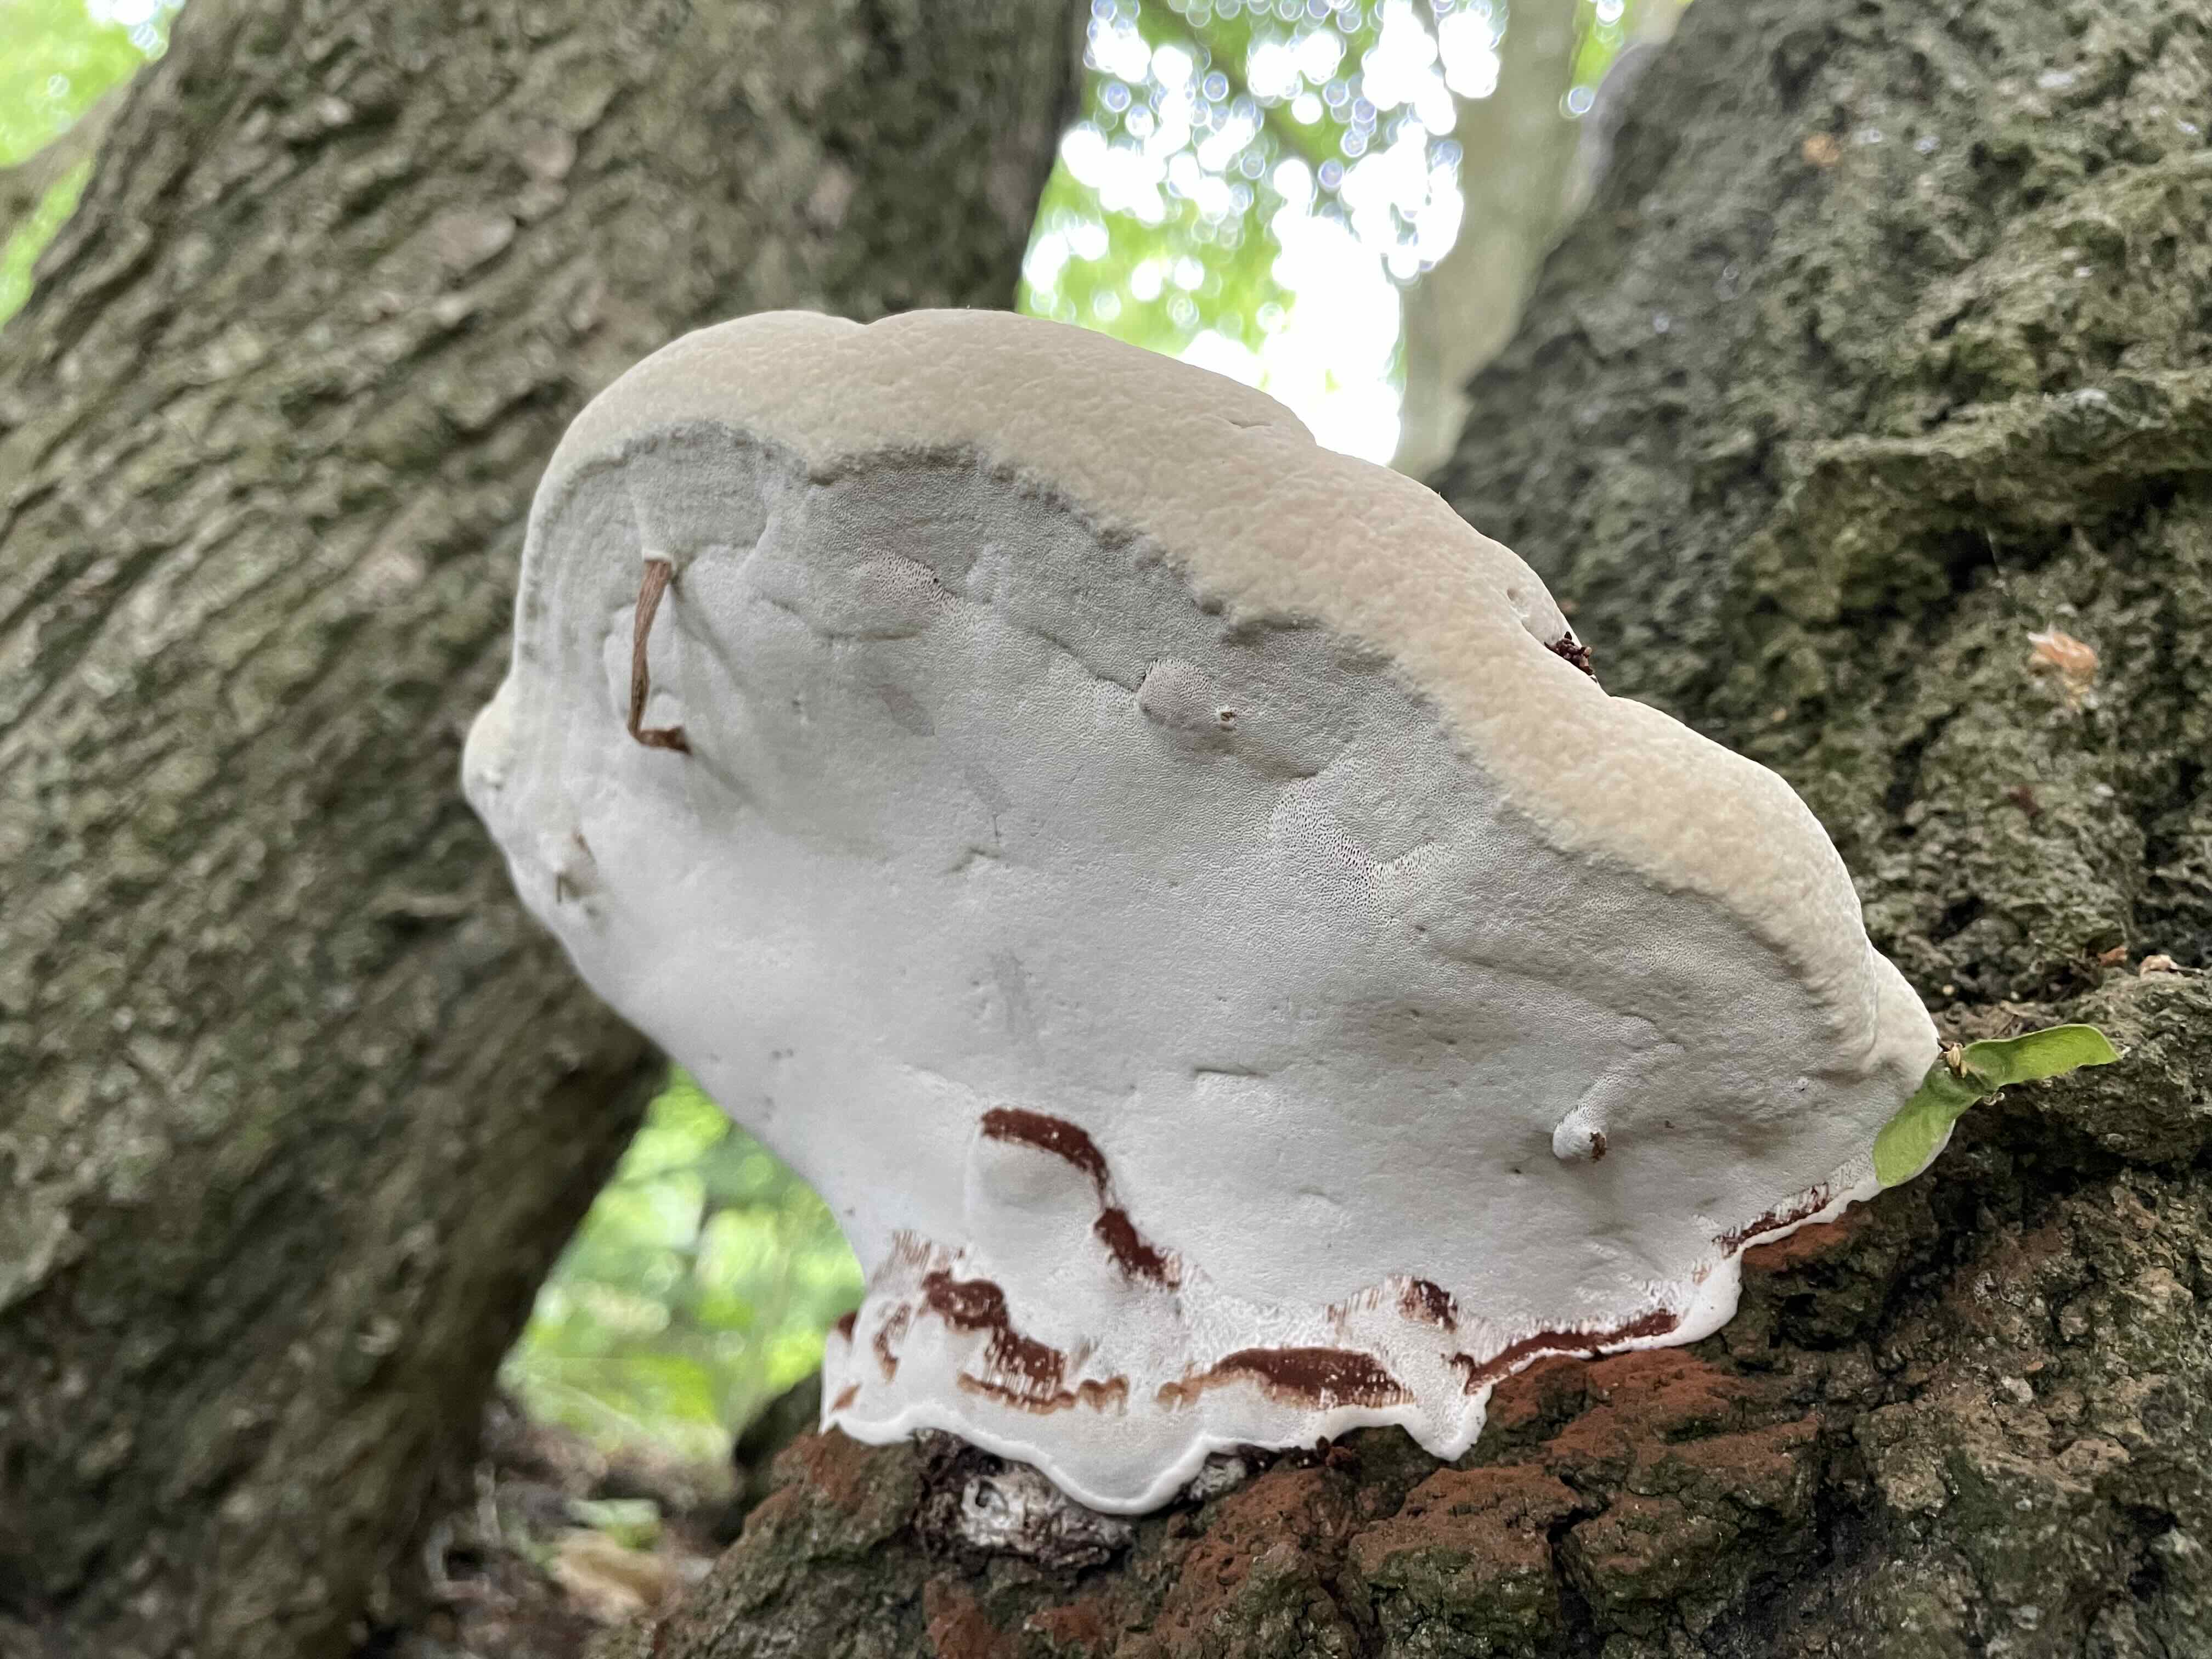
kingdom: Fungi
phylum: Basidiomycota
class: Agaricomycetes
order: Polyporales
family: Polyporaceae
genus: Ganoderma
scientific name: Ganoderma applanatum
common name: flad lakporesvamp
